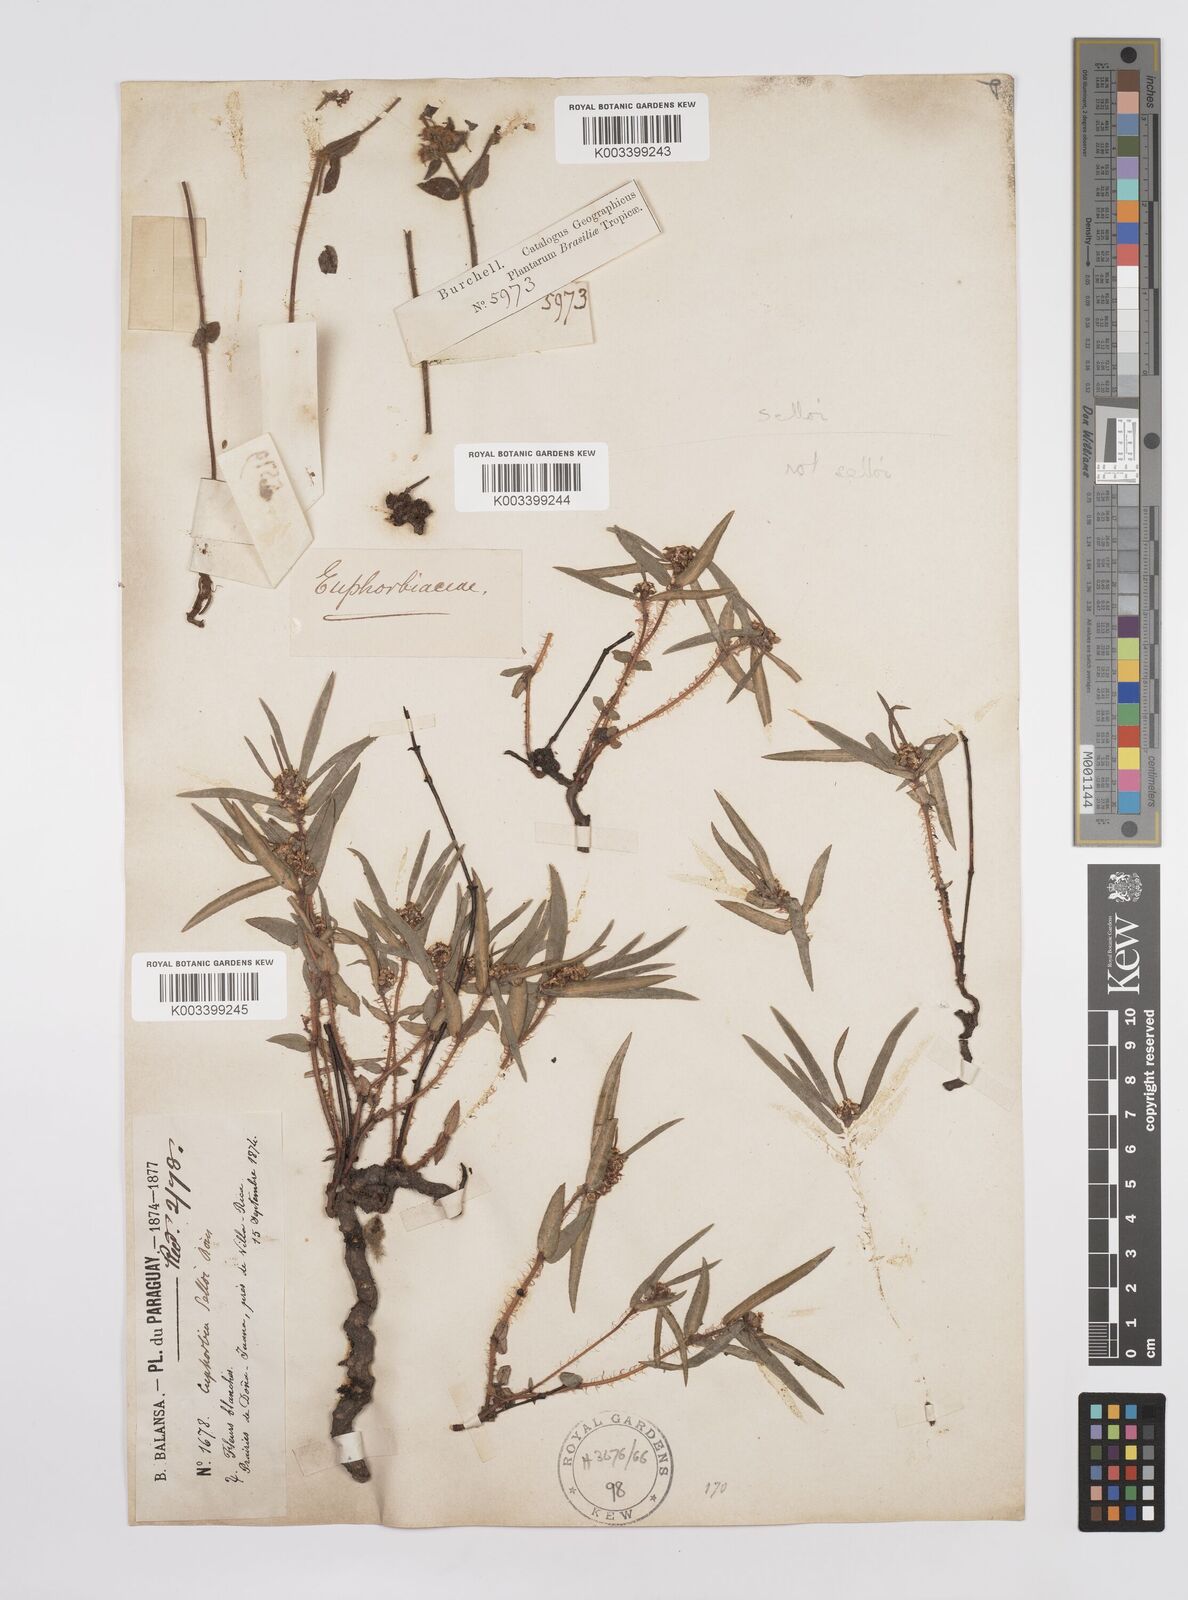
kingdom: Plantae
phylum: Tracheophyta
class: Magnoliopsida
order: Malpighiales
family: Euphorbiaceae
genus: Euphorbia
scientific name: Euphorbia selloi
